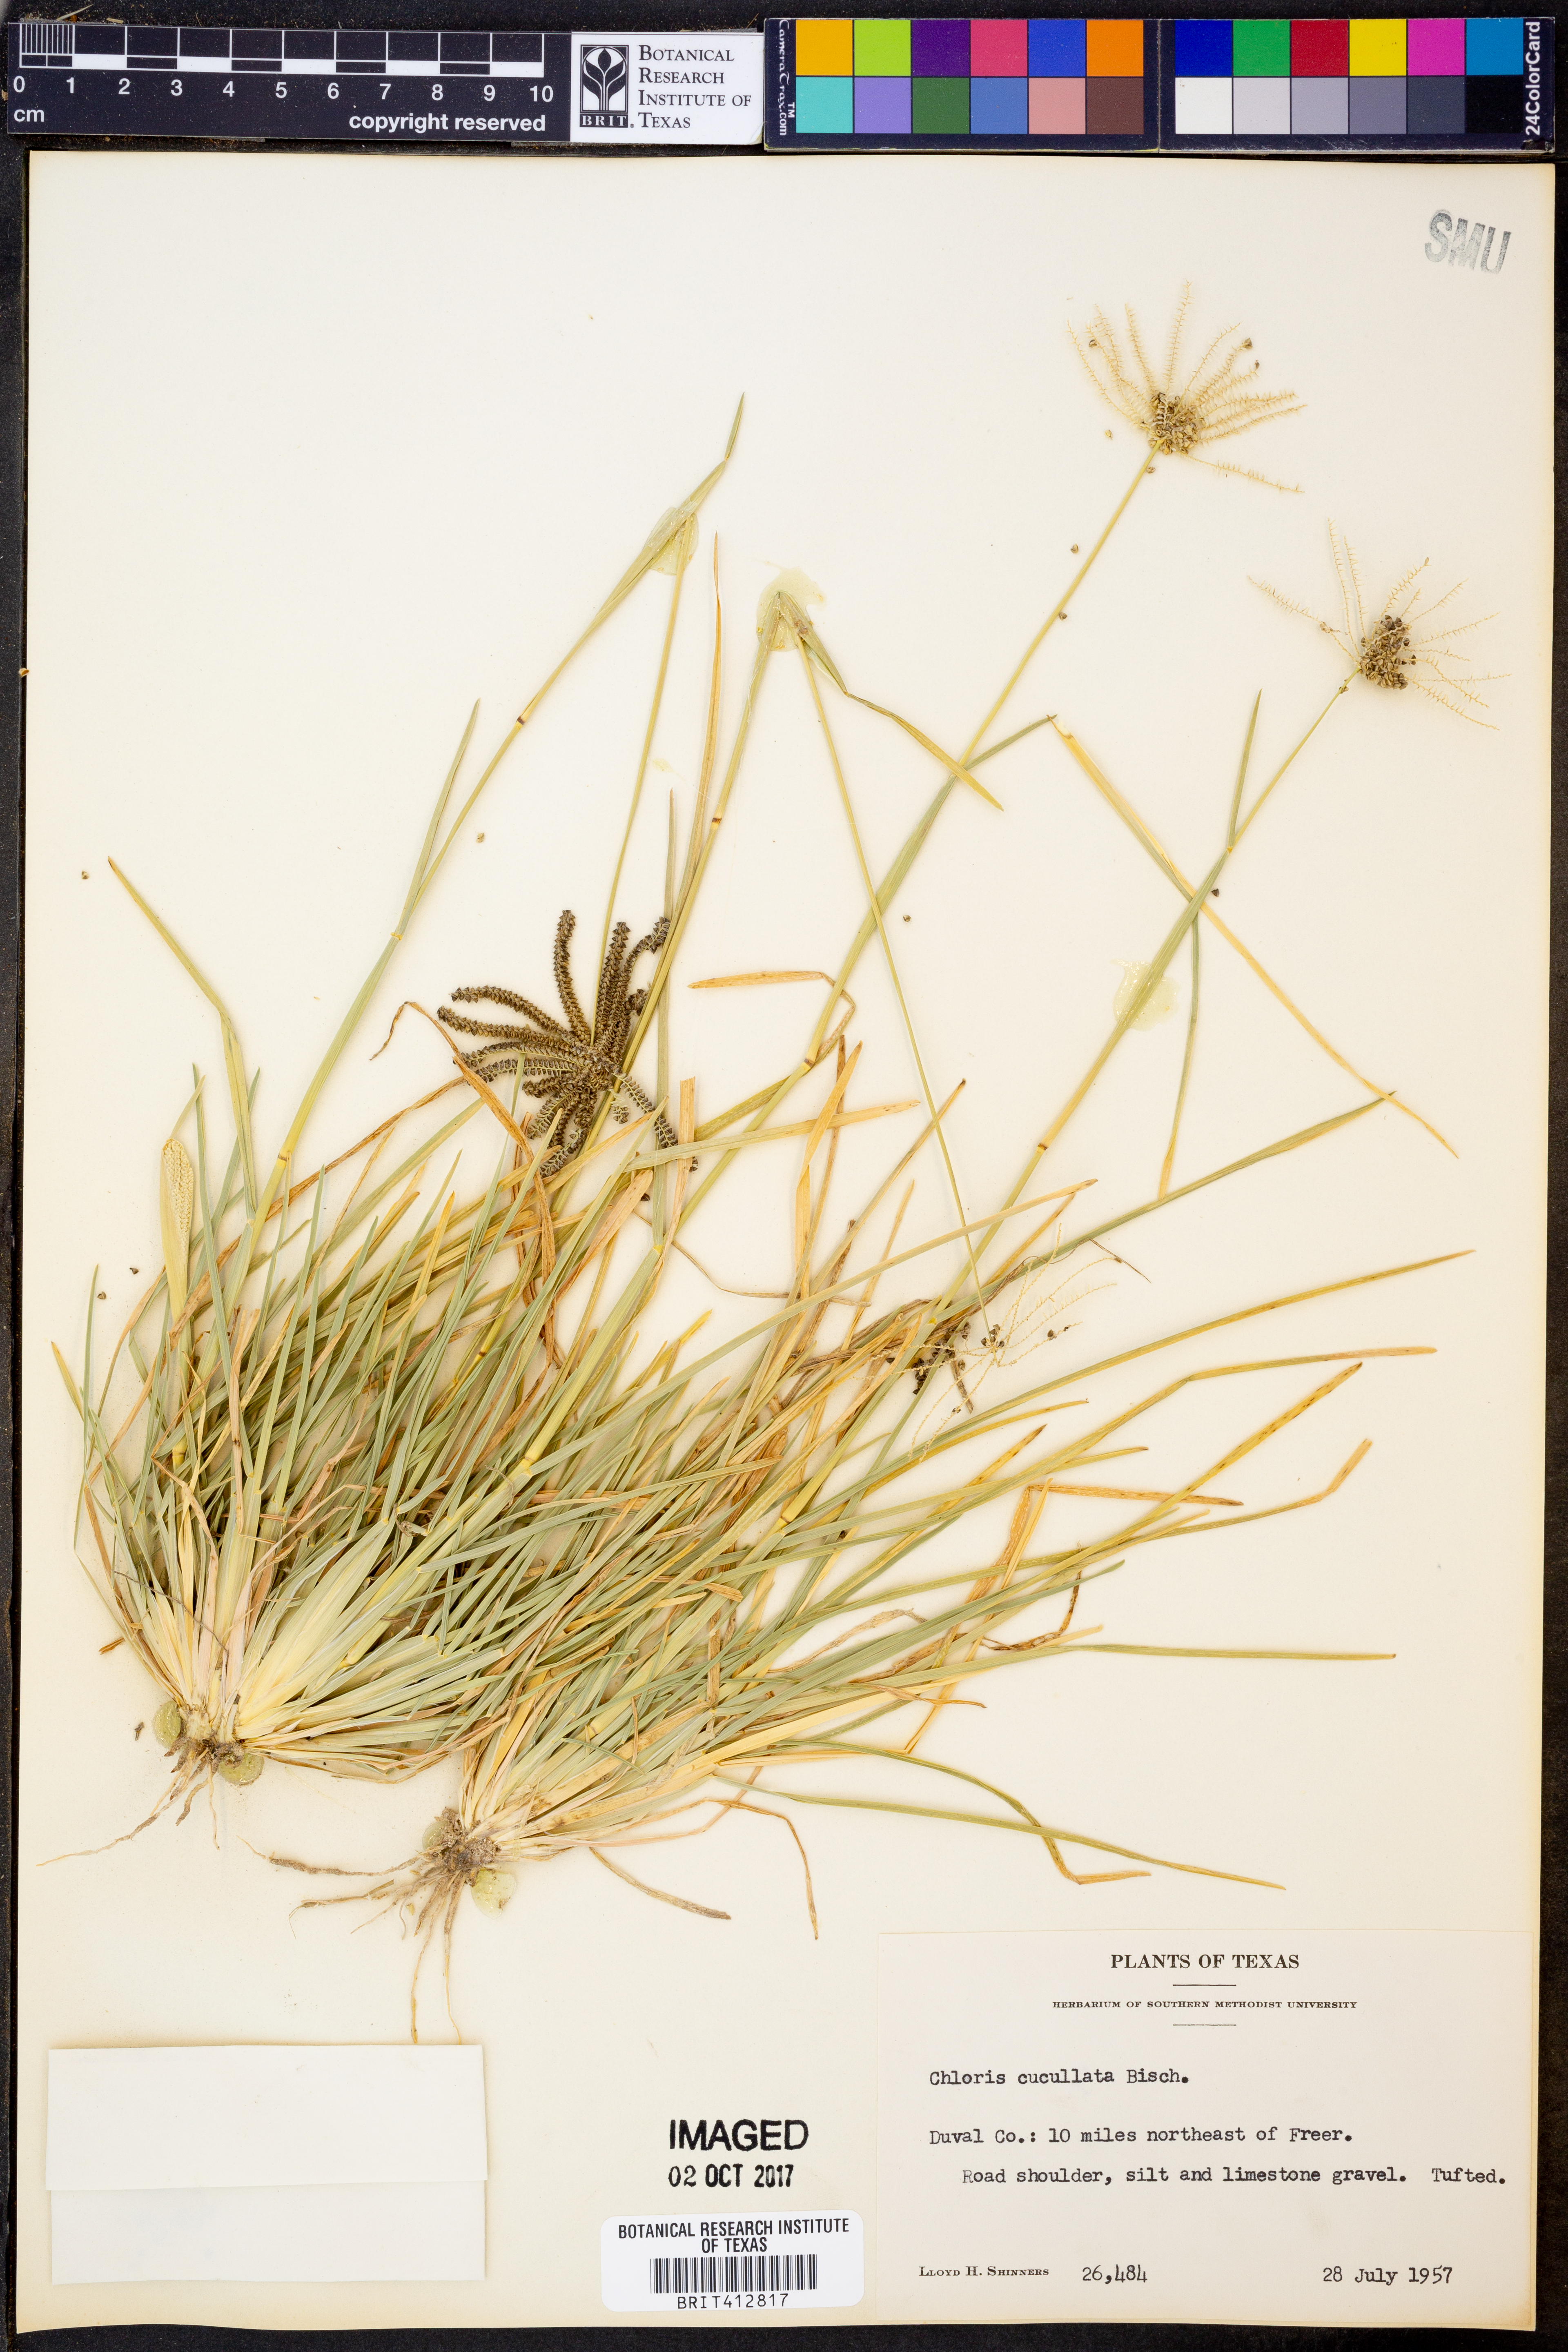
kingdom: Plantae
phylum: Tracheophyta
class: Liliopsida
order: Poales
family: Poaceae
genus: Chloris
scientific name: Chloris cucullata
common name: Hooded windmill grass
